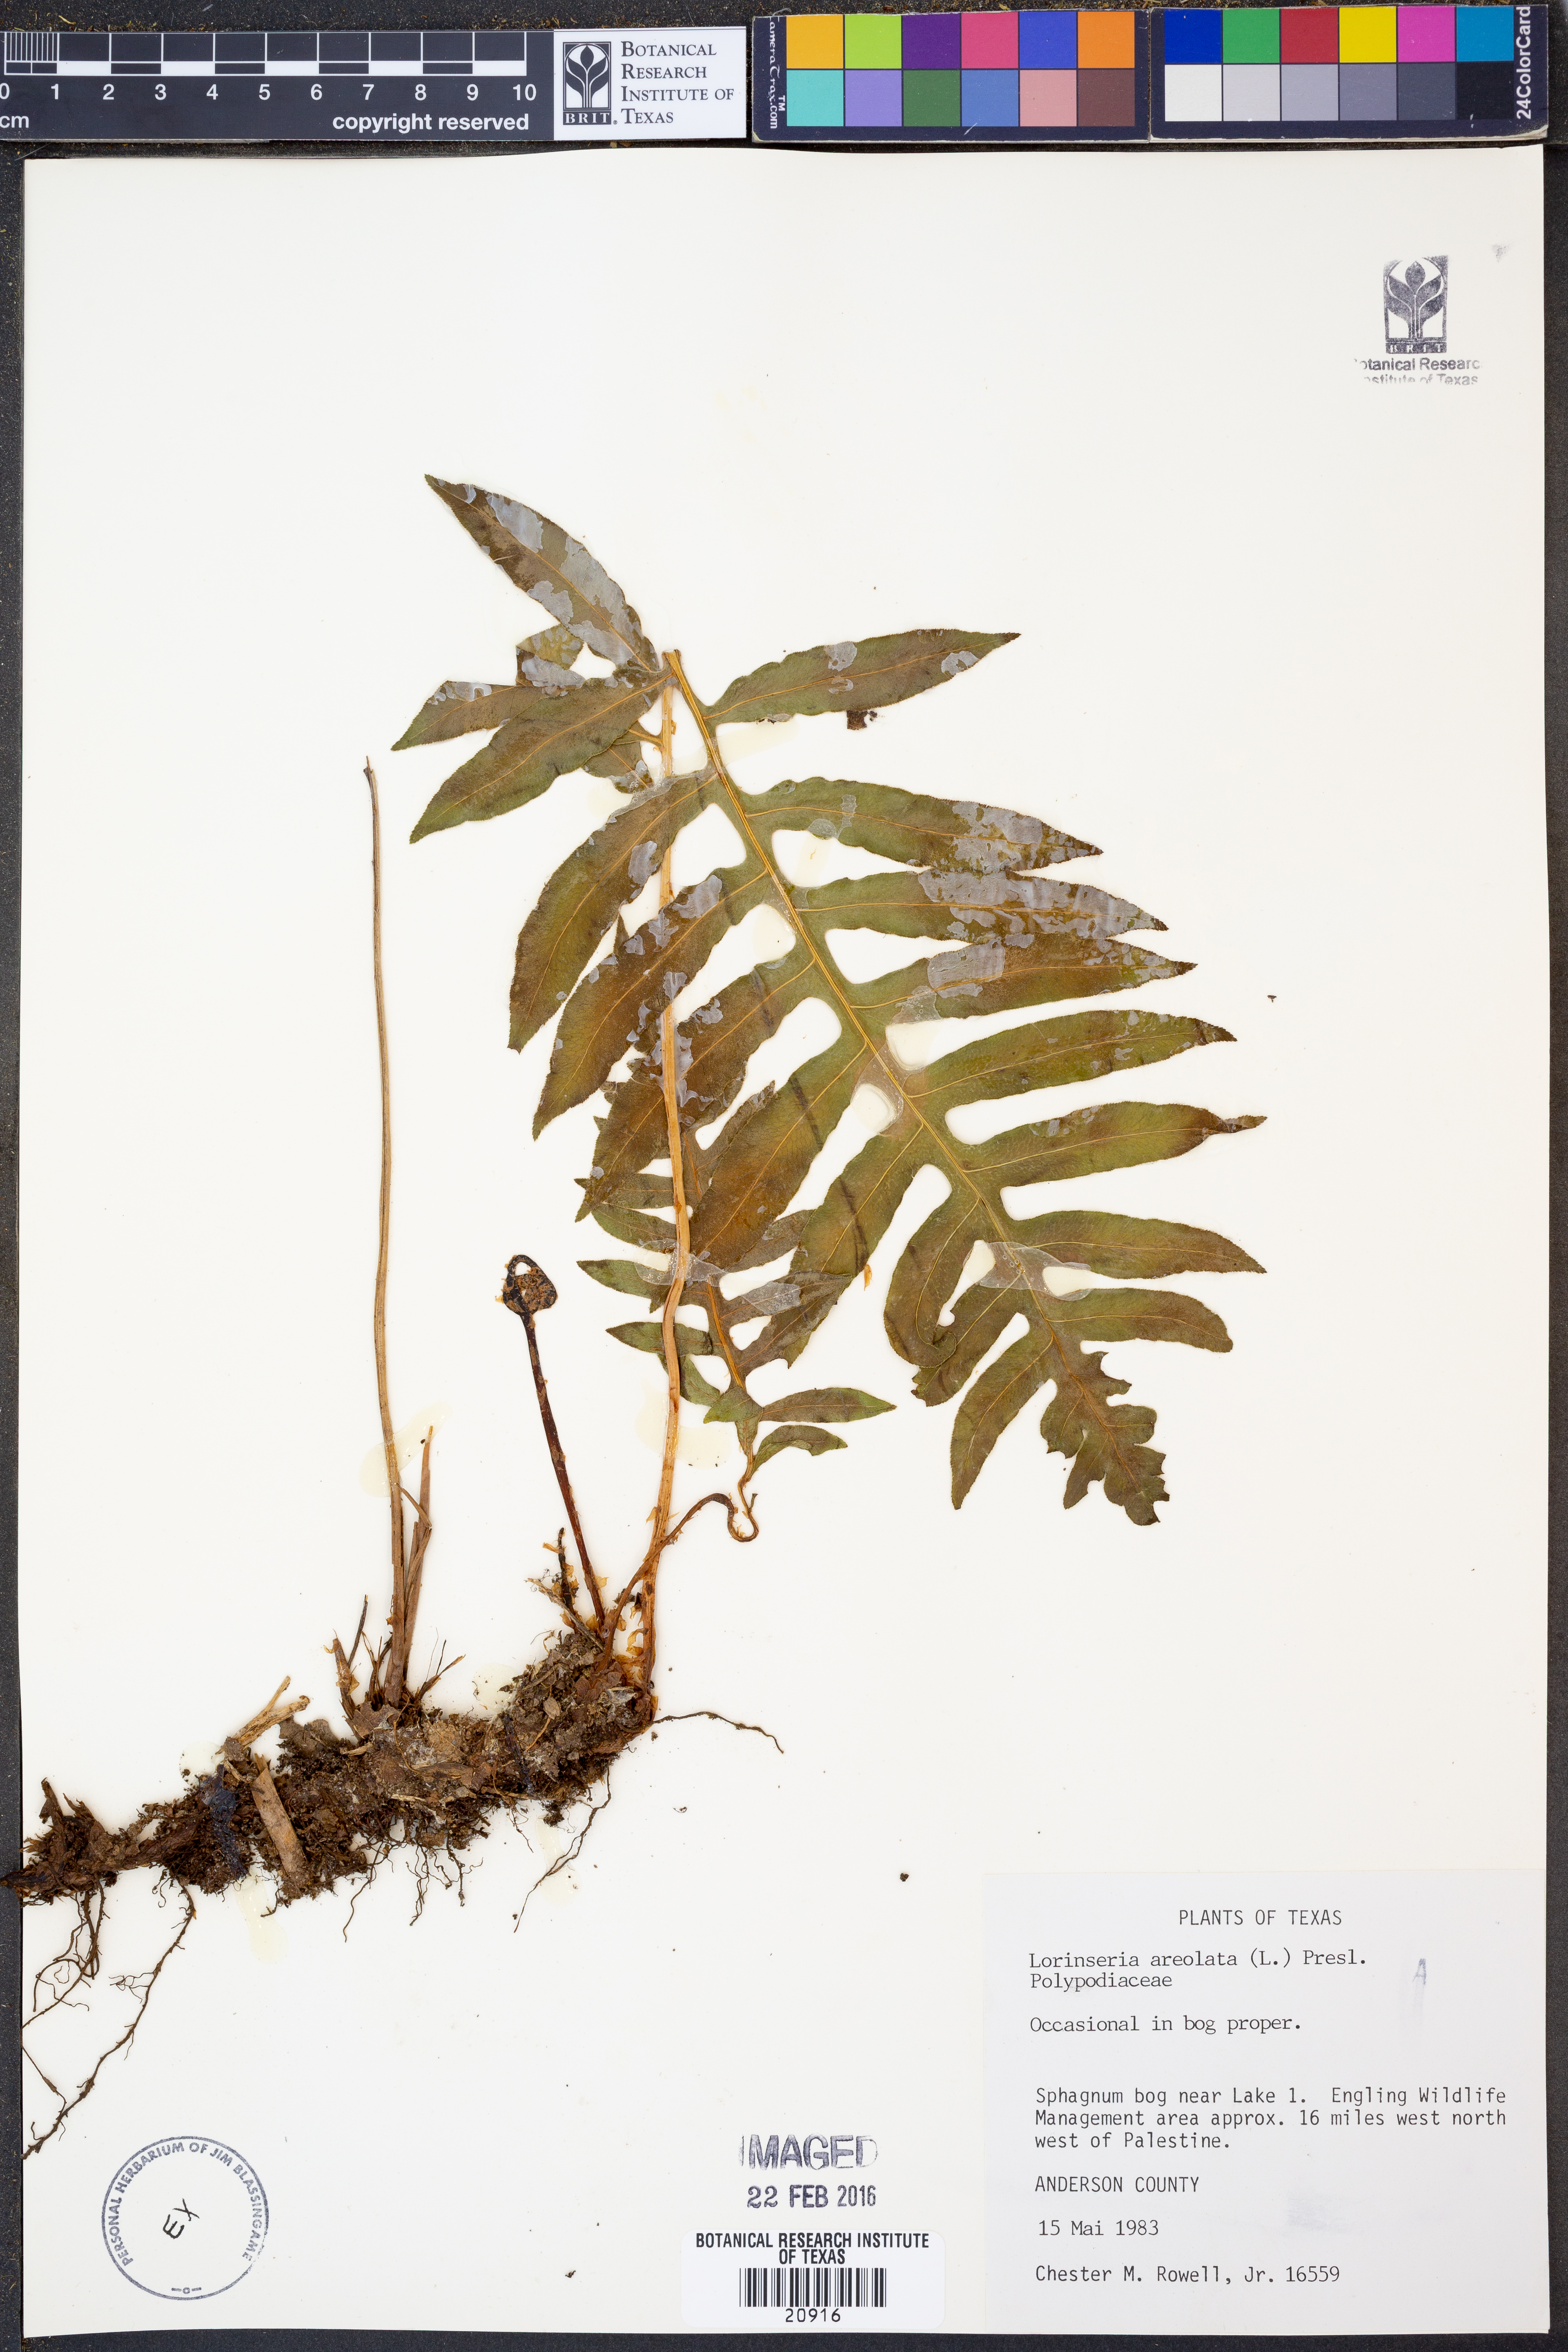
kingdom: Plantae
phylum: Tracheophyta
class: Polypodiopsida
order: Polypodiales
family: Blechnaceae
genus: Lorinseria
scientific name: Lorinseria areolata
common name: Dwarf chain fern
